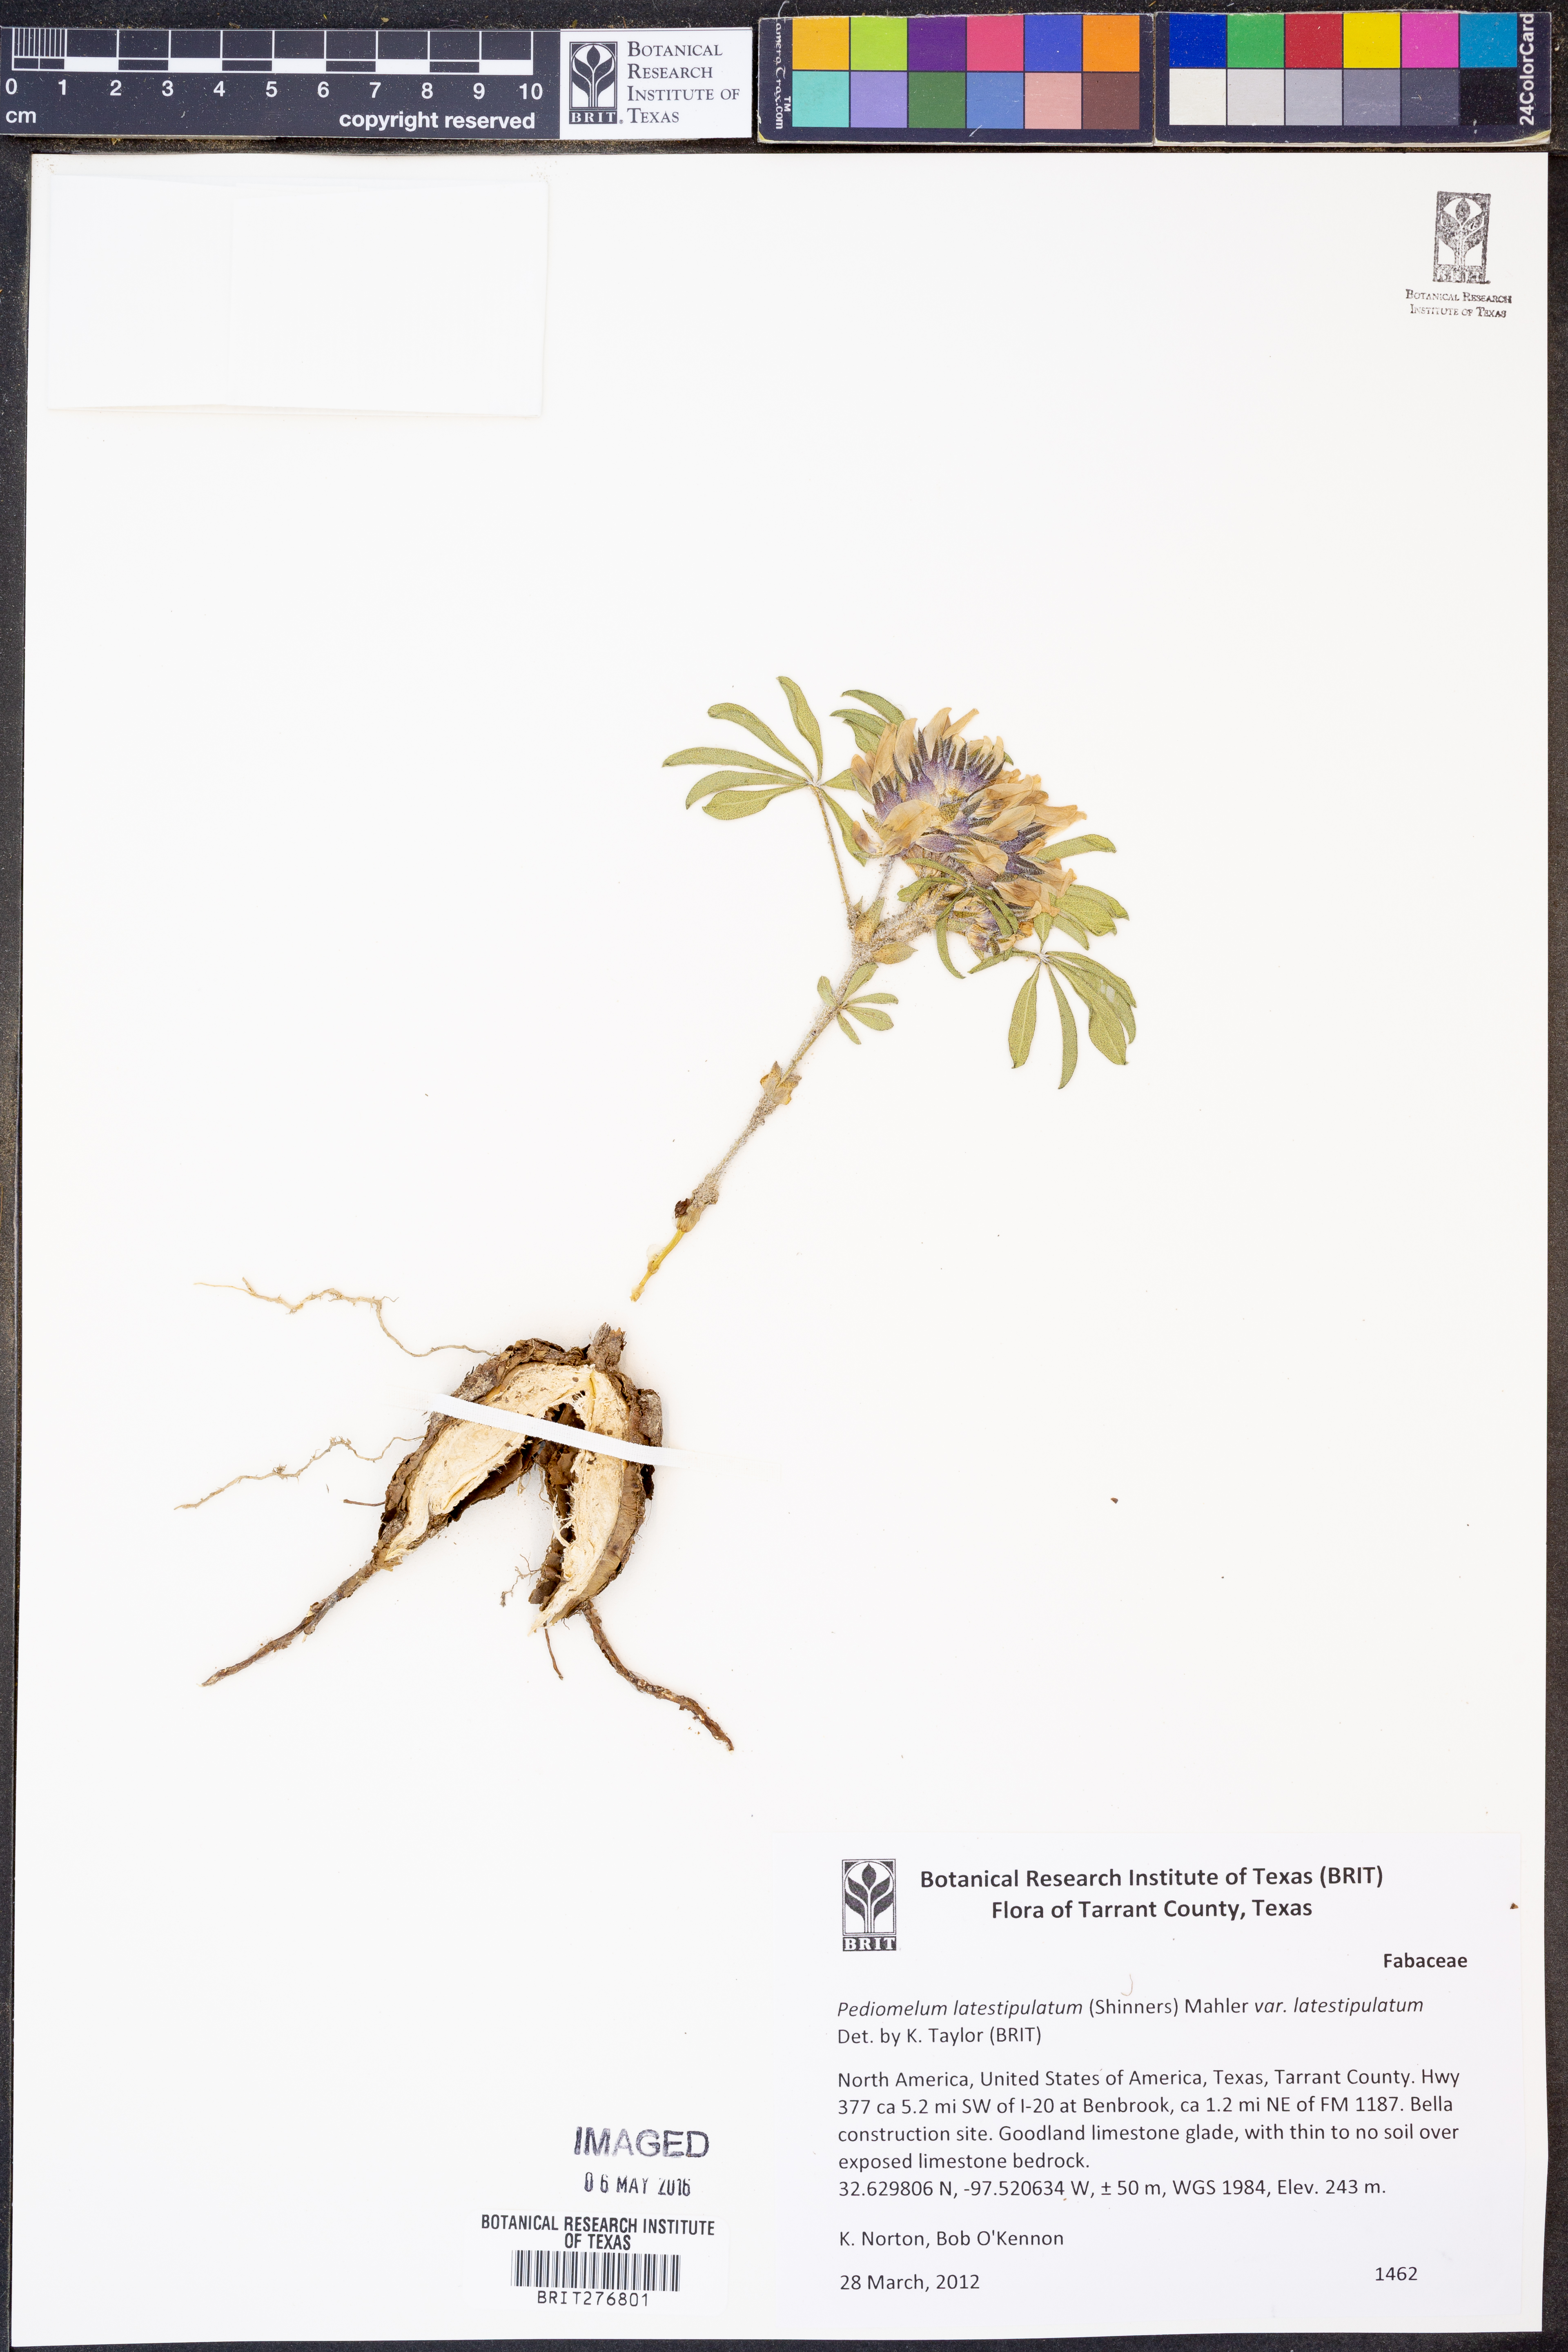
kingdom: Plantae
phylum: Tracheophyta
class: Magnoliopsida
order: Fabales
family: Fabaceae
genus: Pediomelum
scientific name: Pediomelum latestipulatum
